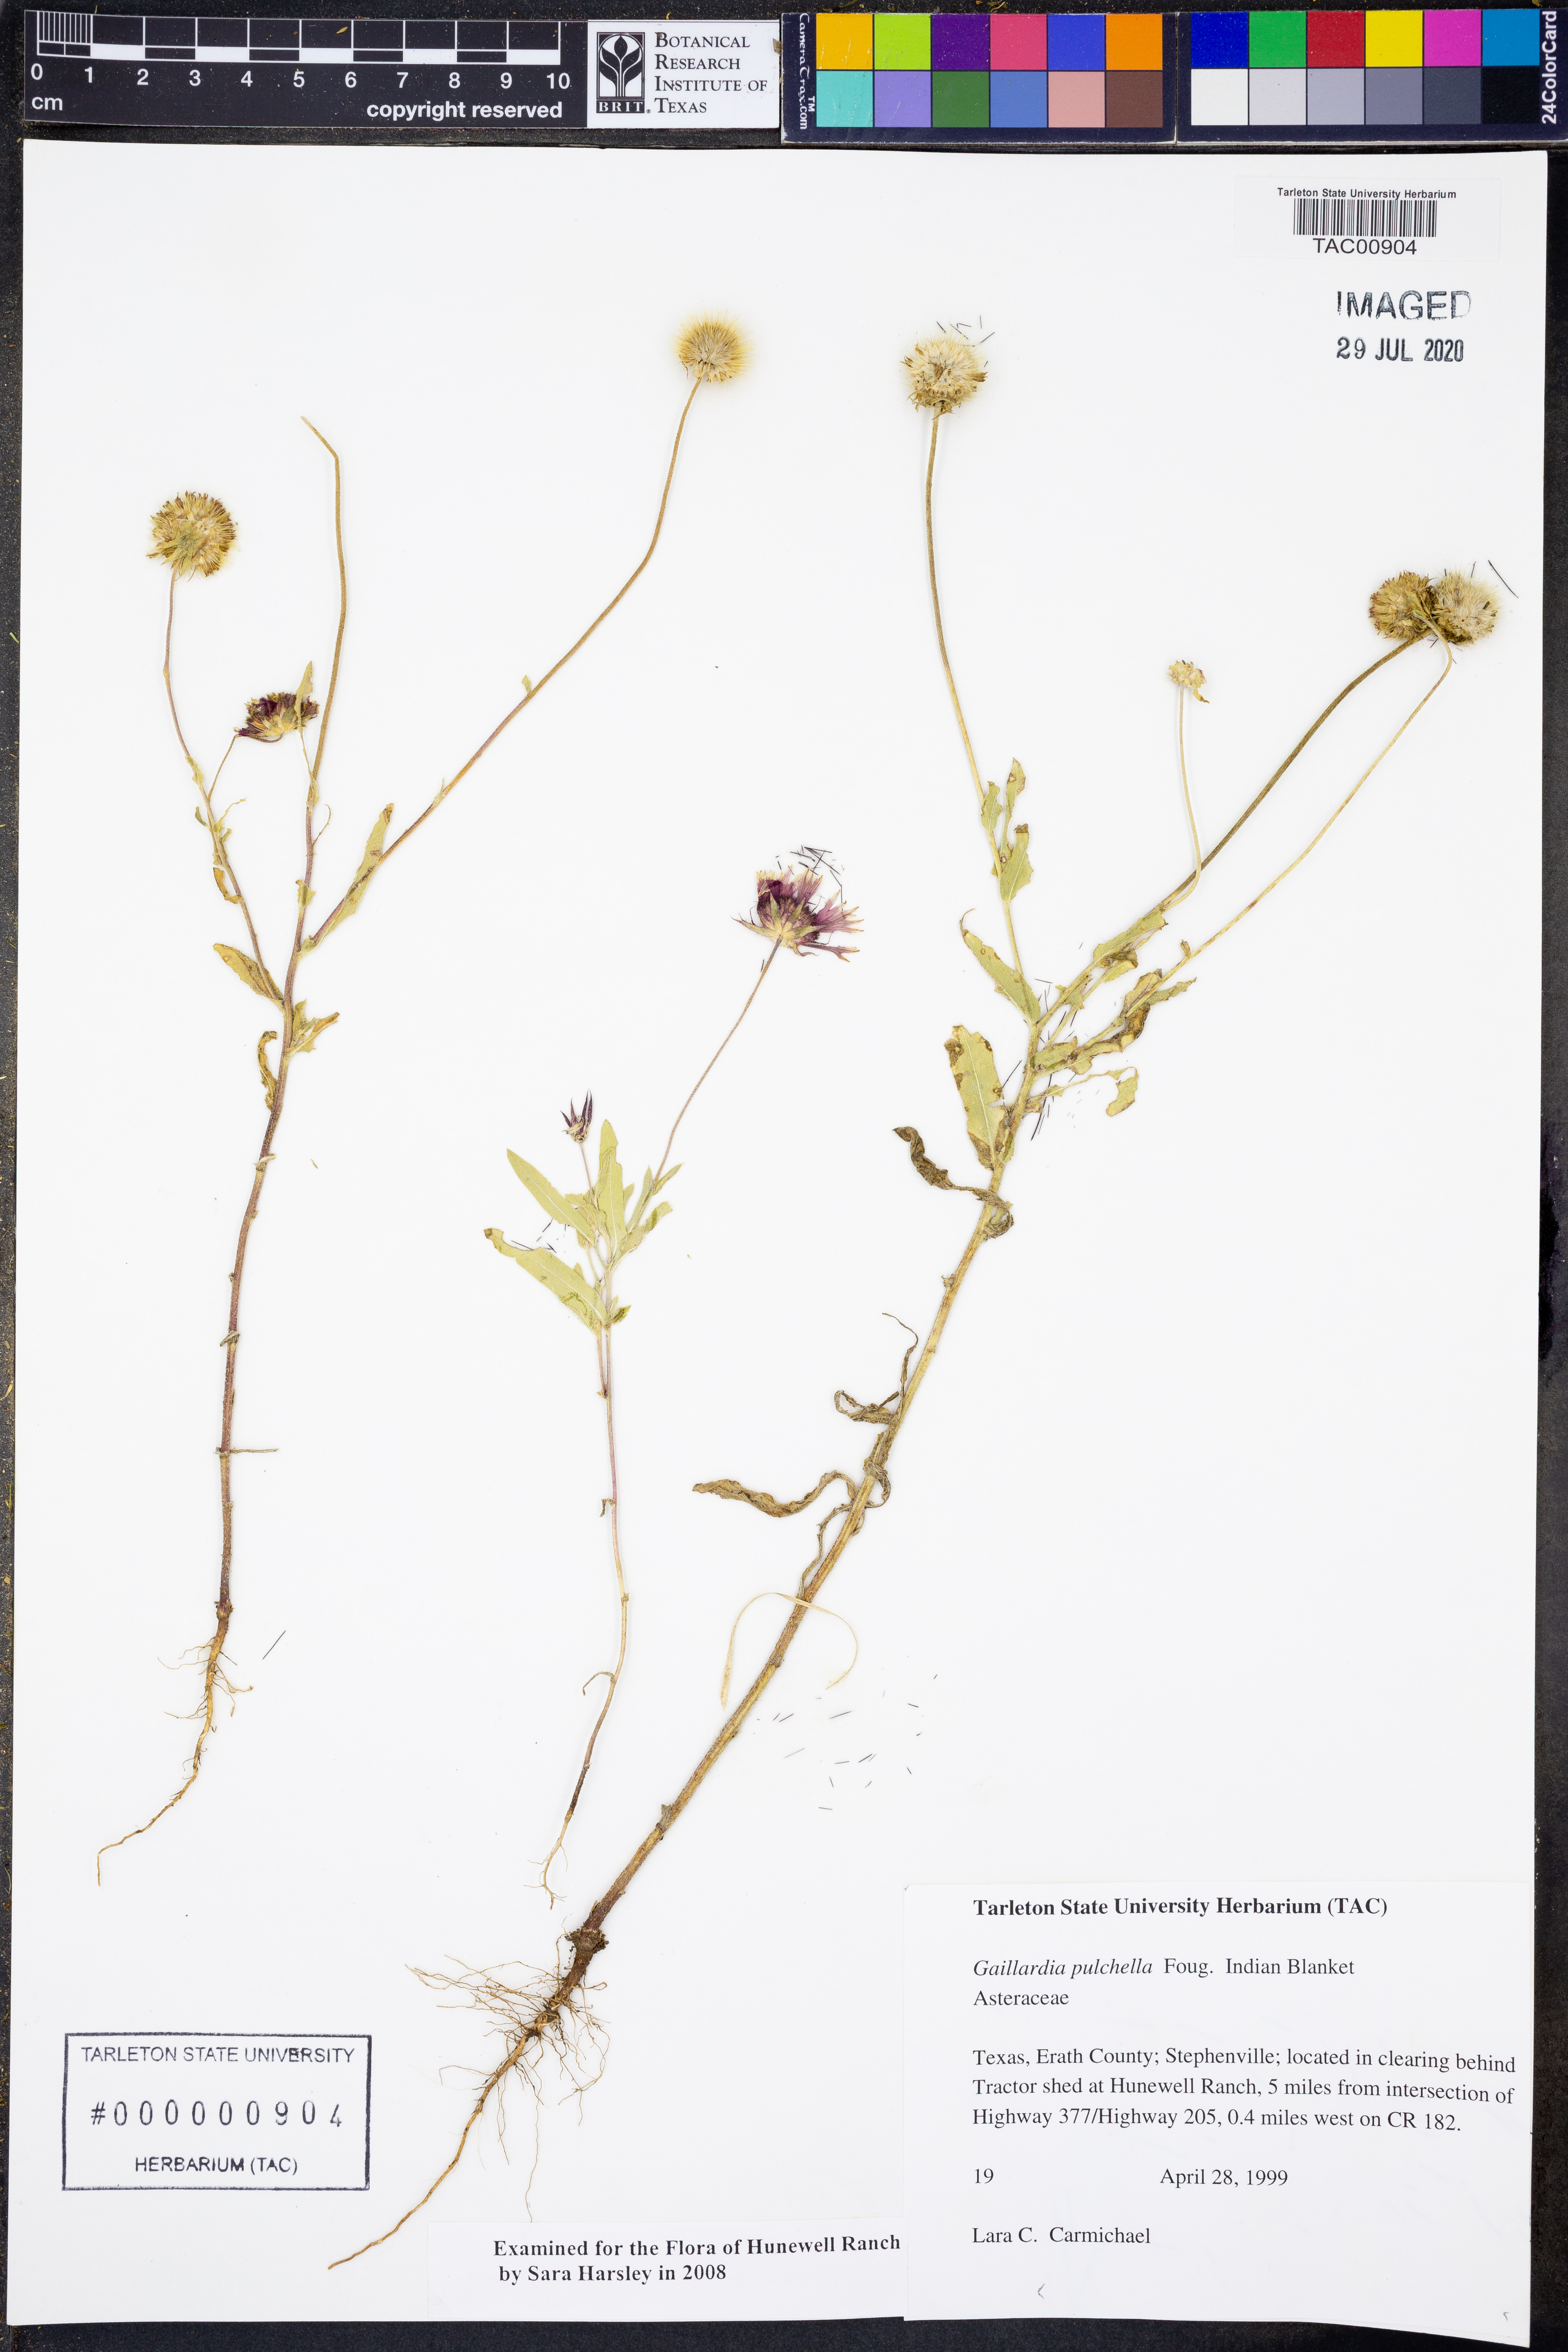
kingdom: Plantae
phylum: Tracheophyta
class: Magnoliopsida
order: Asterales
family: Asteraceae
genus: Gaillardia
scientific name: Gaillardia pulchella
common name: Firewheel
